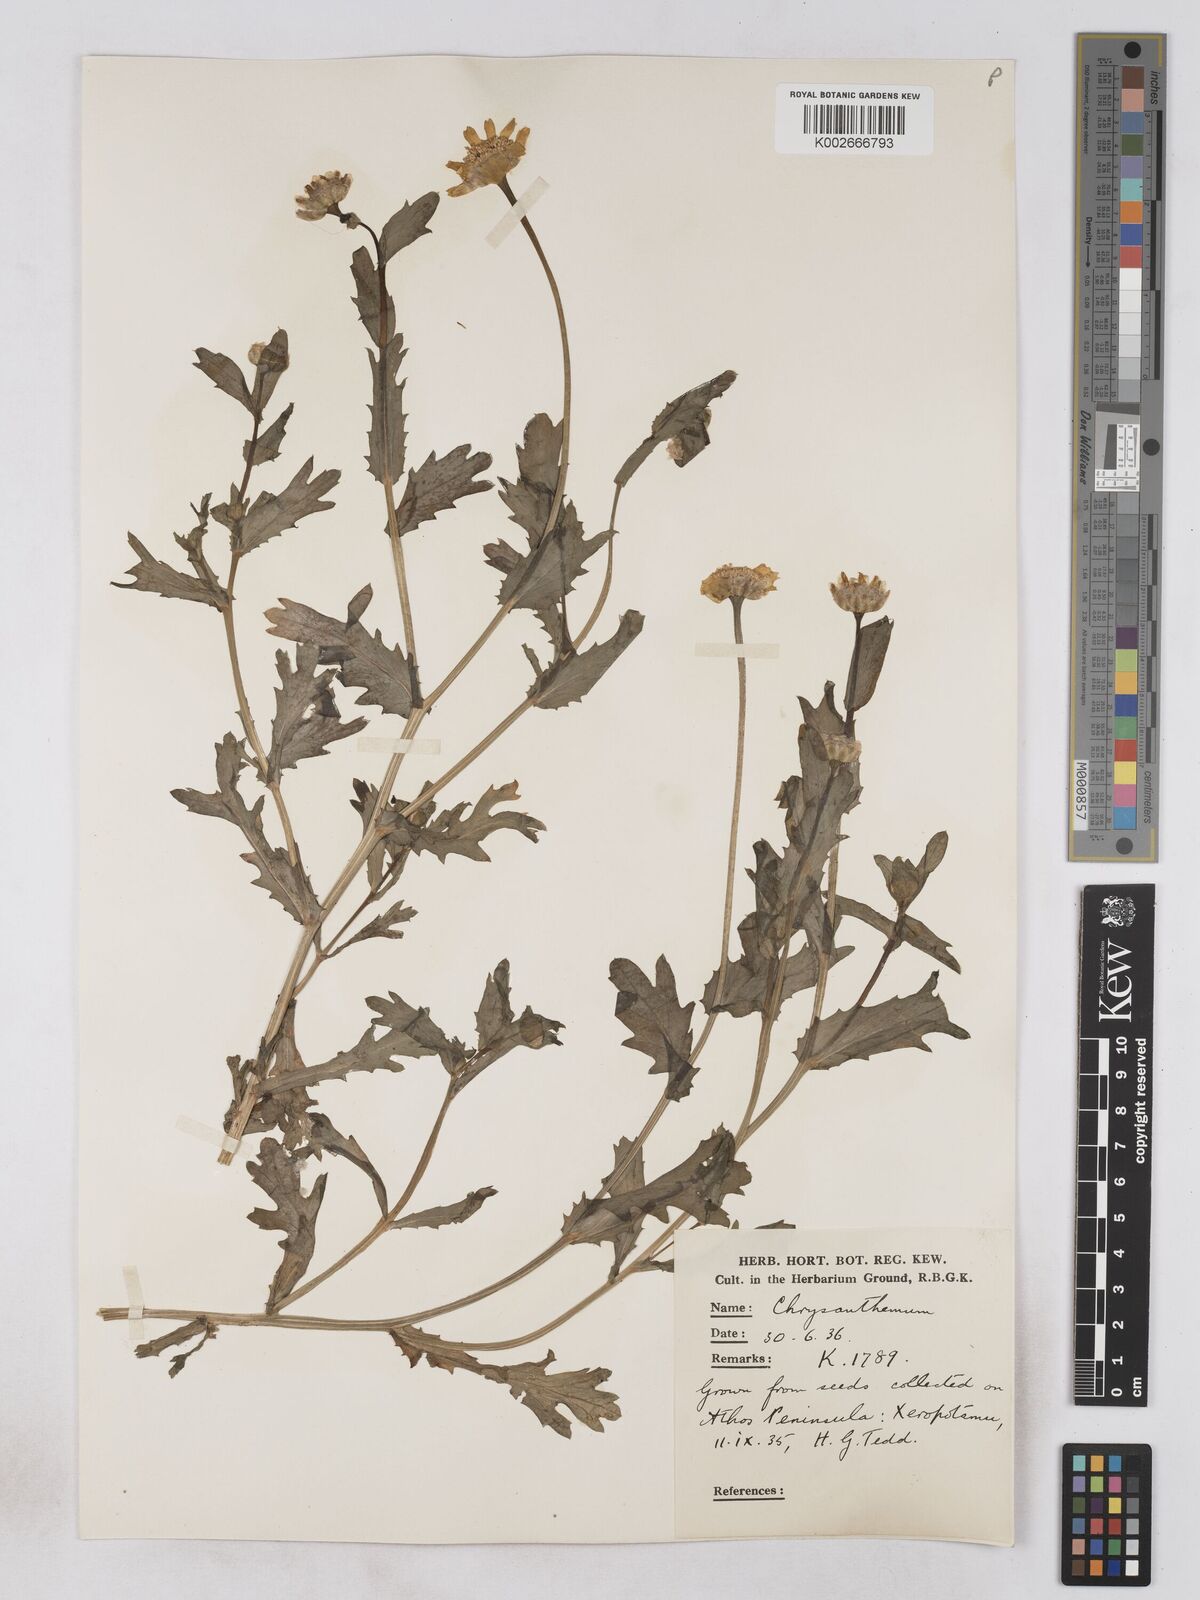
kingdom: Plantae
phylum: Tracheophyta
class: Magnoliopsida
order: Asterales
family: Asteraceae
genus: Glebionis
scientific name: Glebionis segetum
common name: Corndaisy
